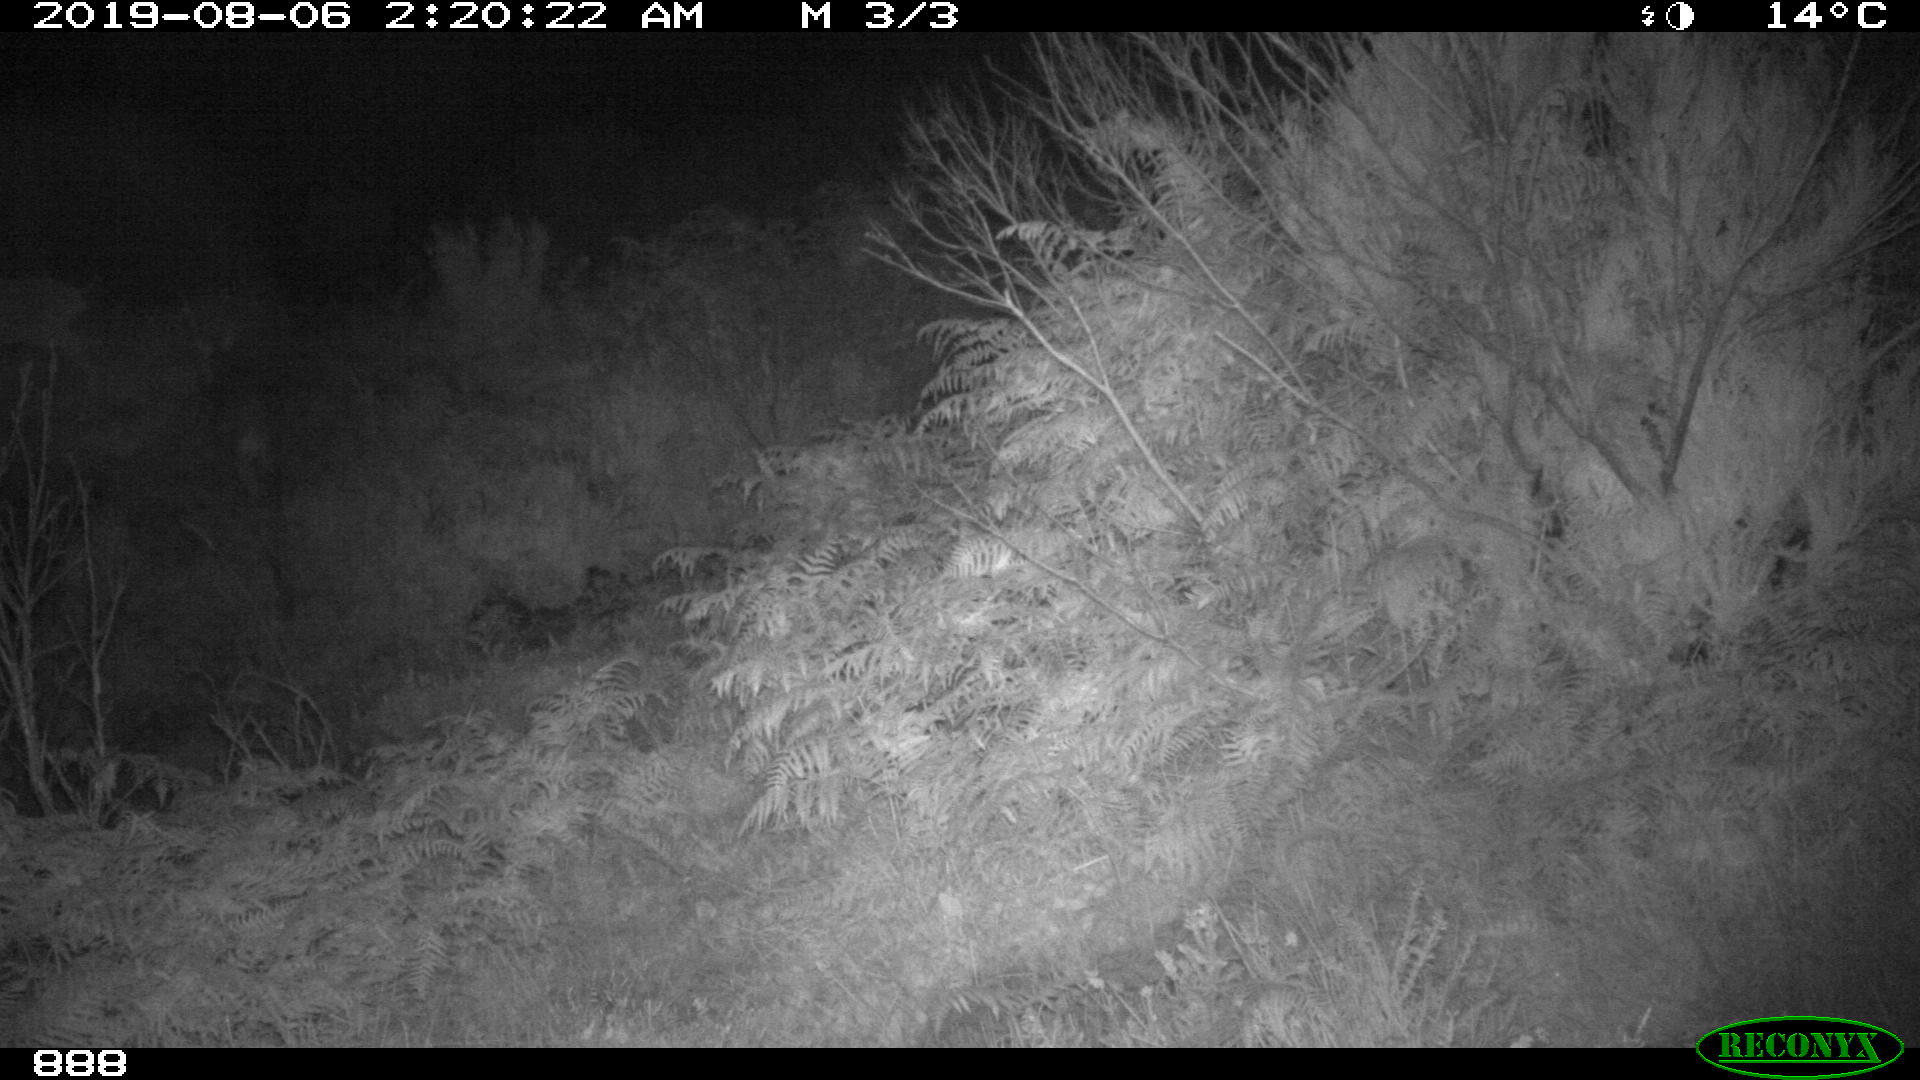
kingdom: Animalia
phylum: Chordata
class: Mammalia
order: Artiodactyla
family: Cervidae
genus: Capreolus
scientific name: Capreolus capreolus
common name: Western roe deer
